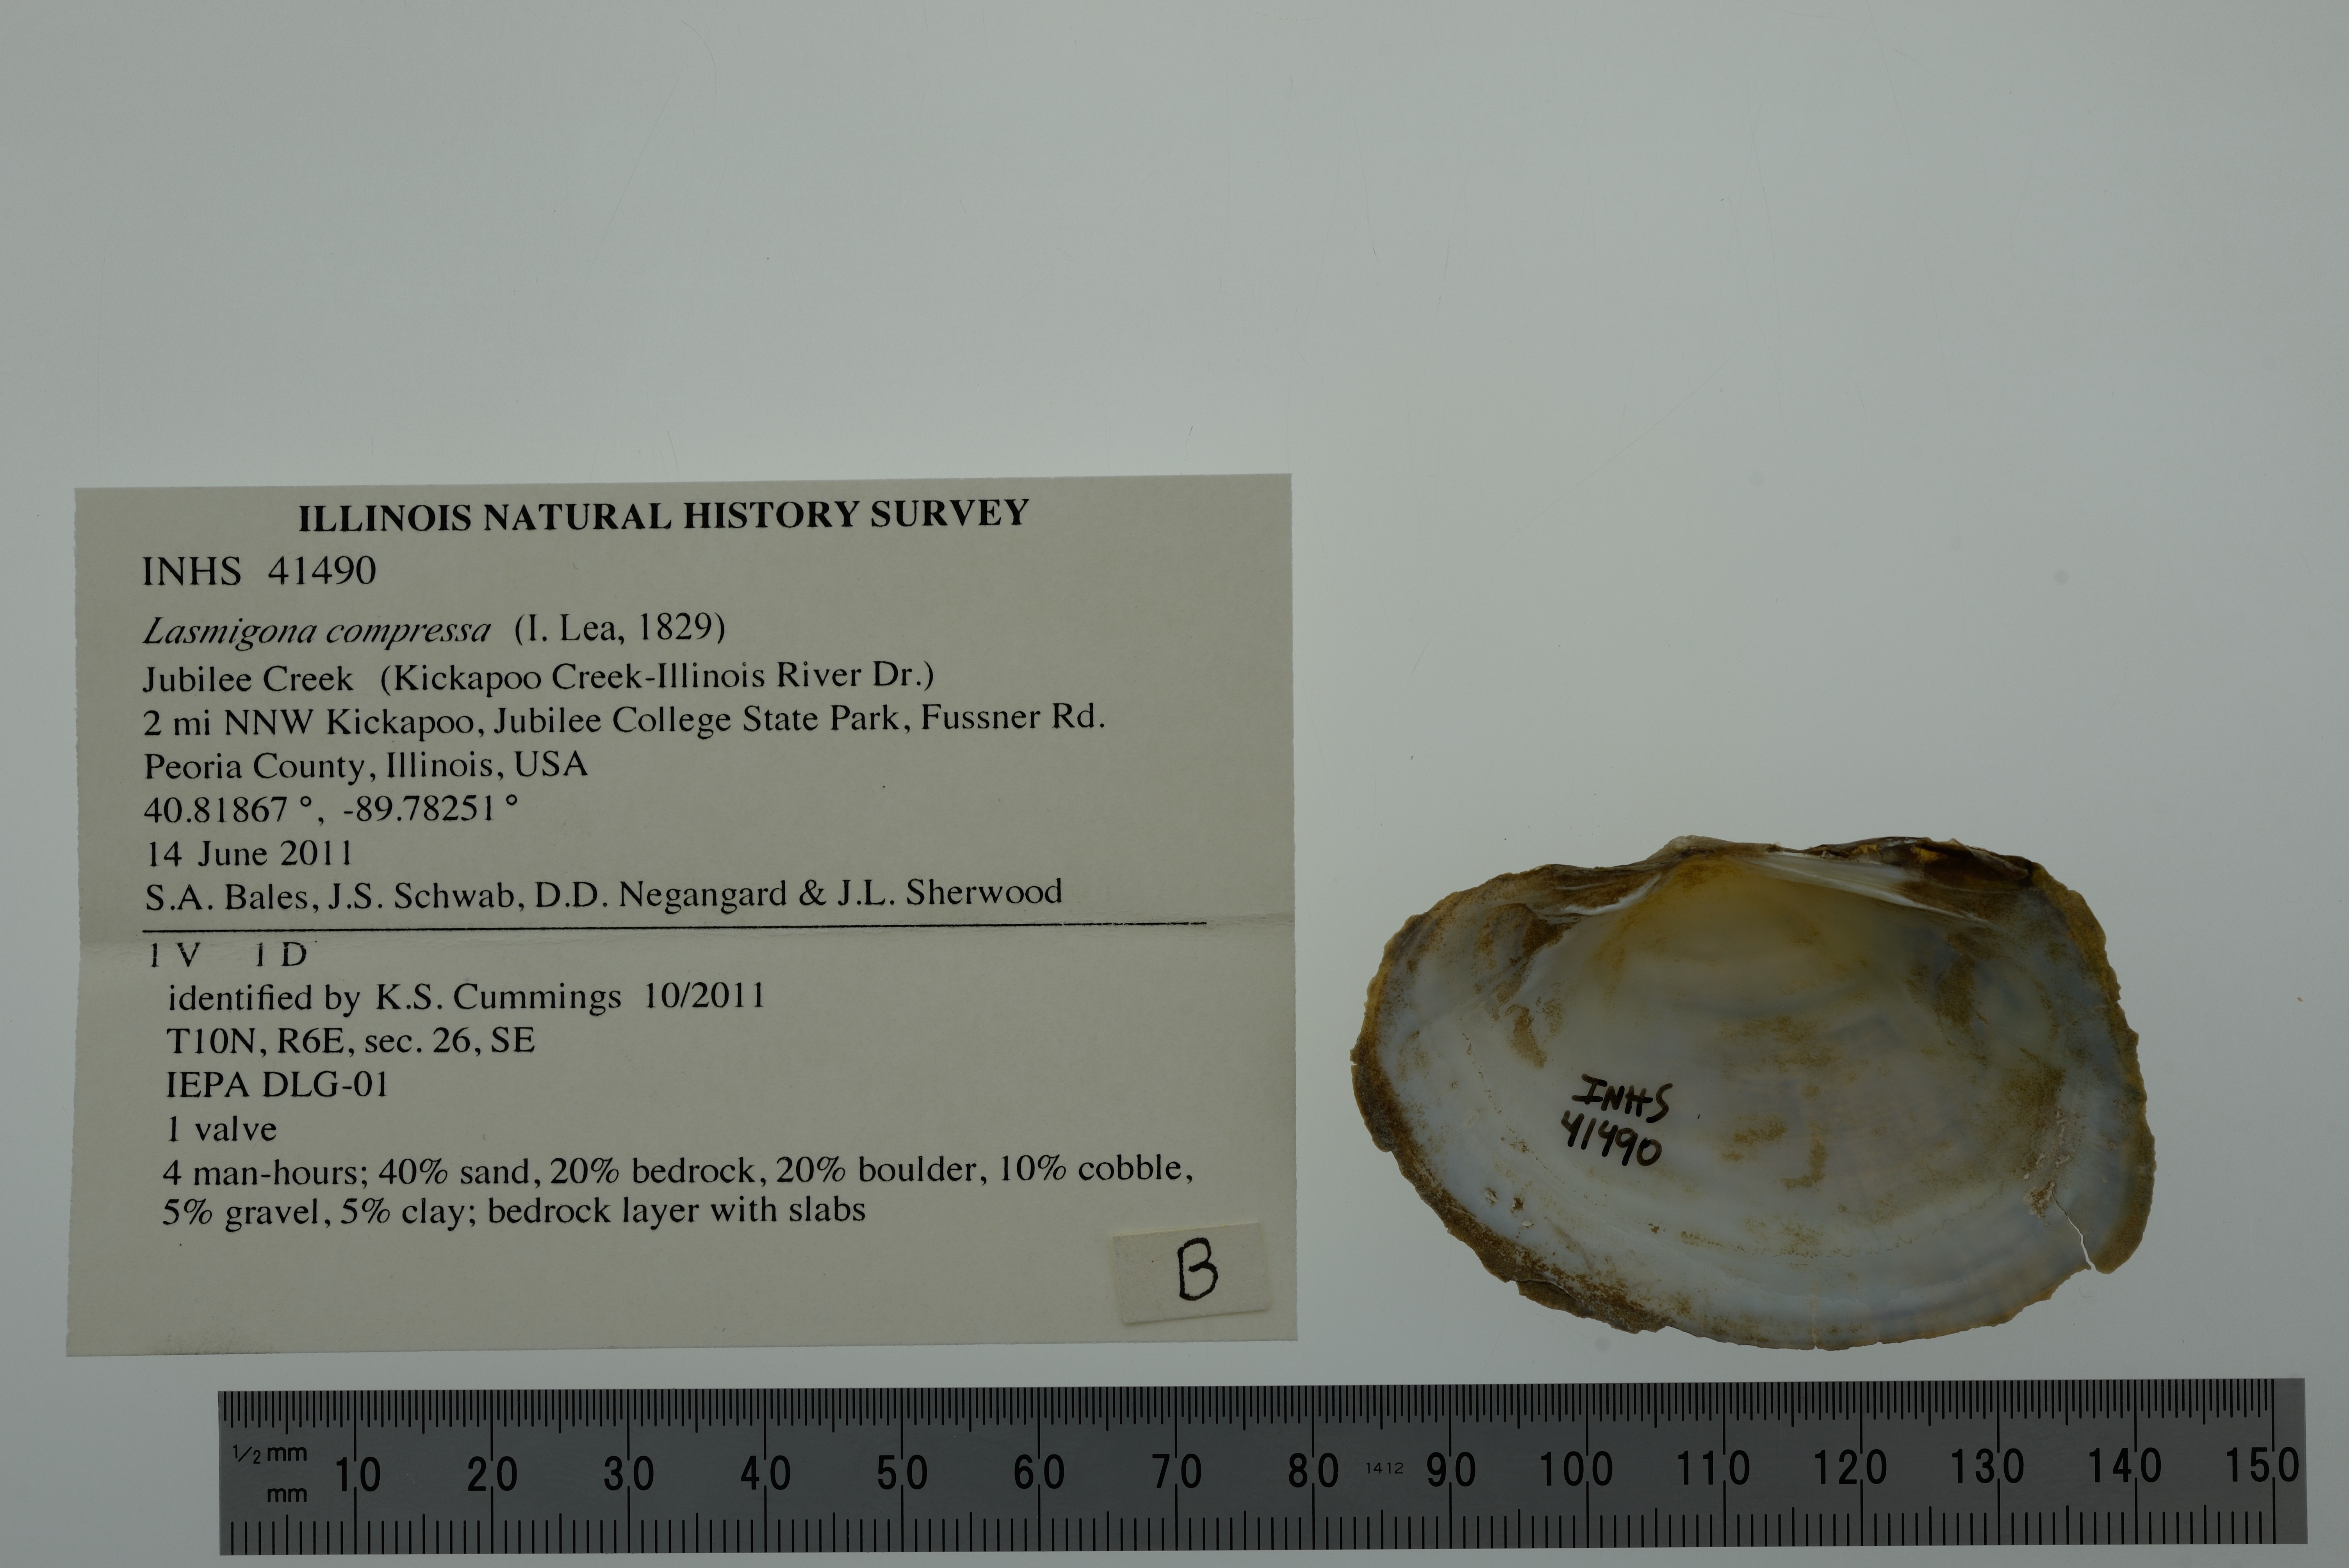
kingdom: Animalia
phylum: Mollusca
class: Bivalvia
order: Unionida
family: Unionidae
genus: Lasmigona
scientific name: Lasmigona compressa
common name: Creek heelsplitter
